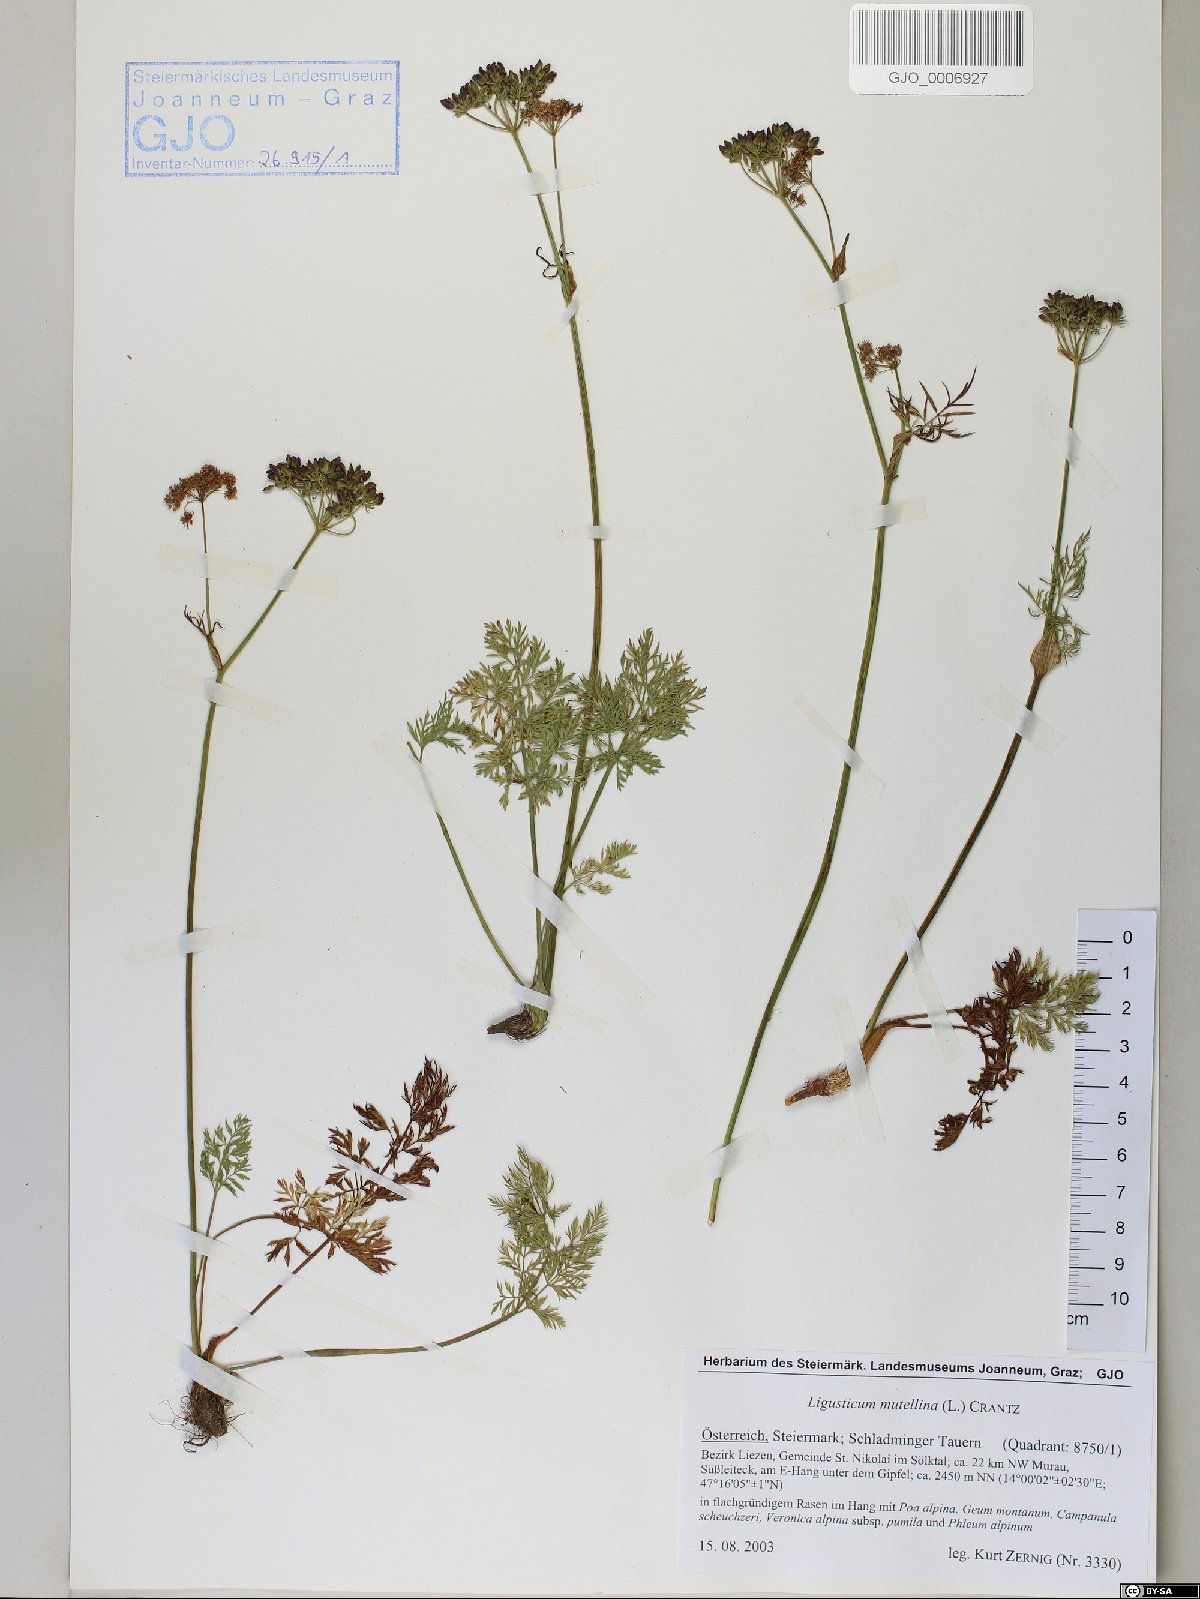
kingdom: Plantae
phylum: Tracheophyta
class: Magnoliopsida
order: Apiales
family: Apiaceae
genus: Mutellina
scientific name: Mutellina adonidifolia
